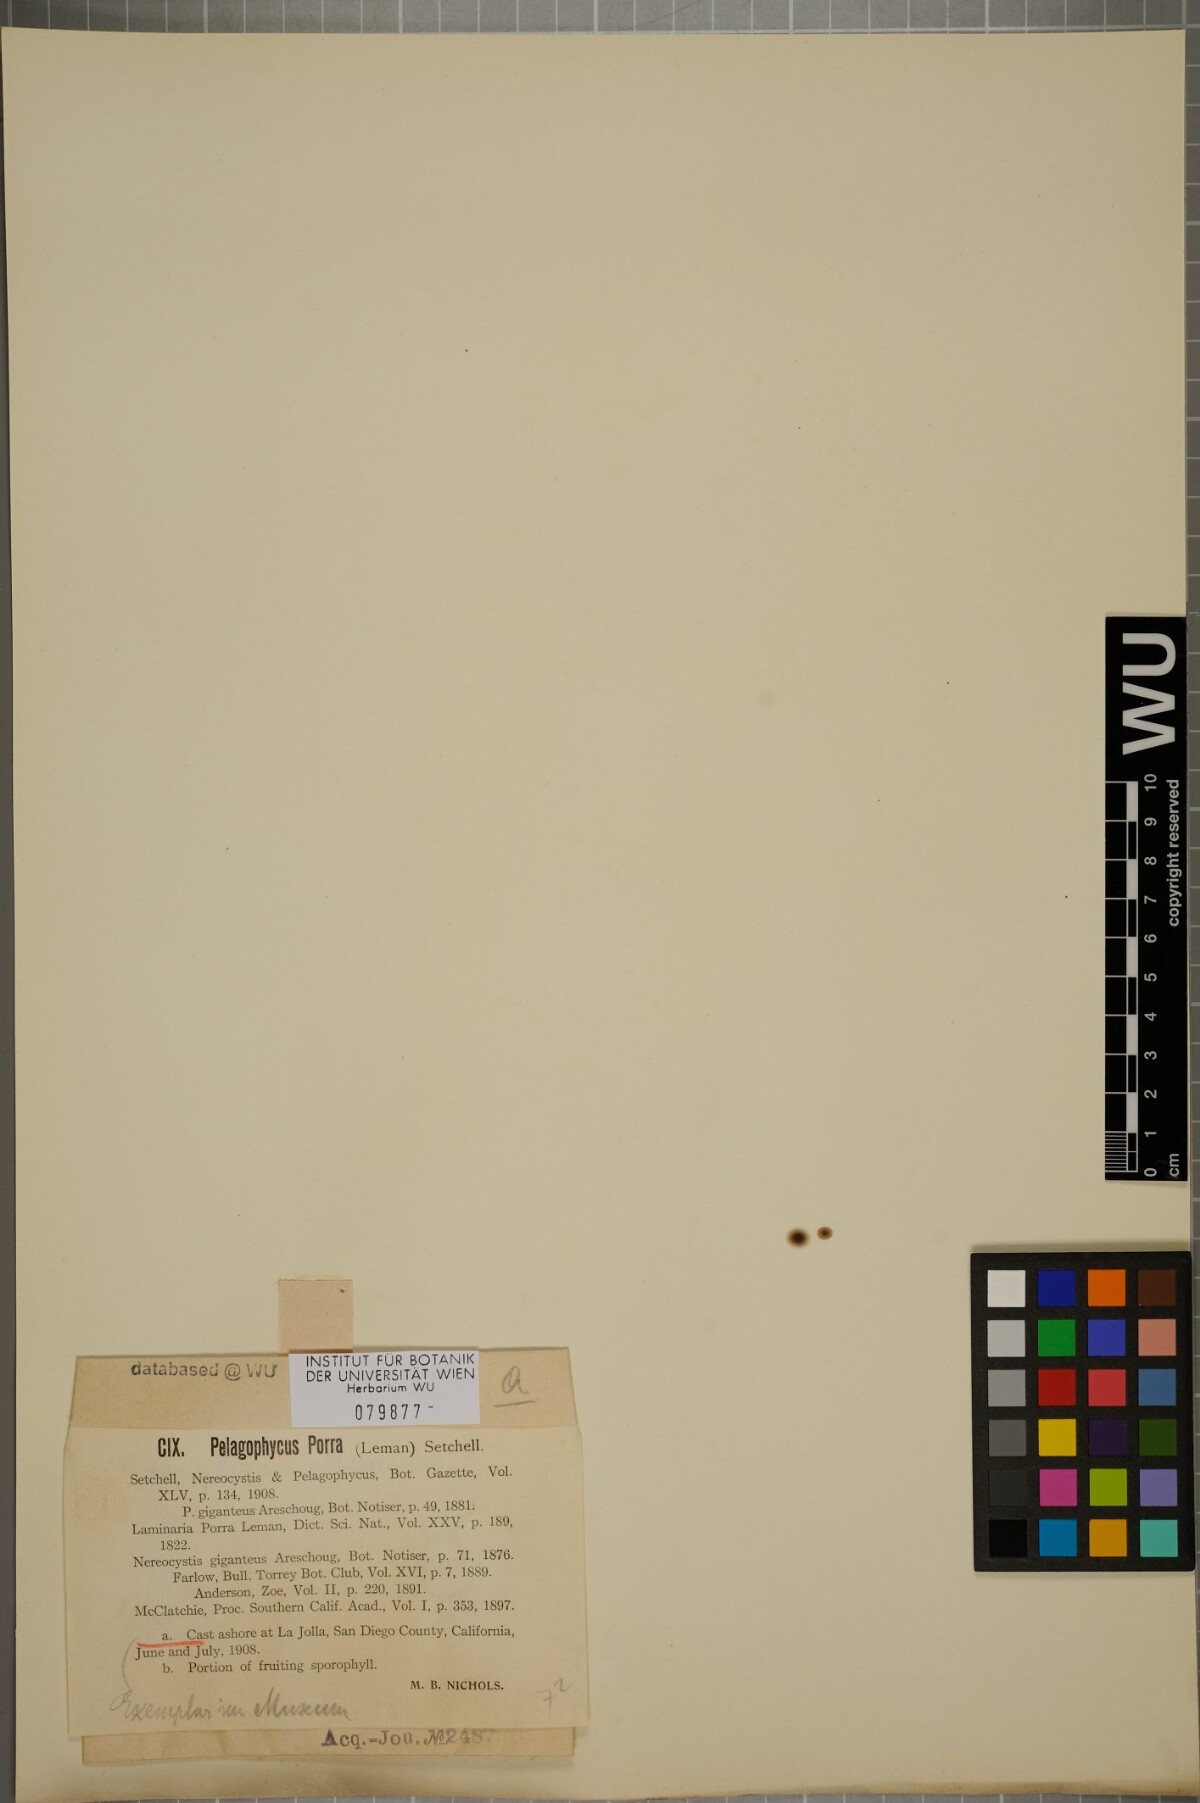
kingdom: Chromista
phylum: Ochrophyta
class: Phaeophyceae
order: Laminariales
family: Laminariaceae
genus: Pelagophycus
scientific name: Pelagophycus porra
